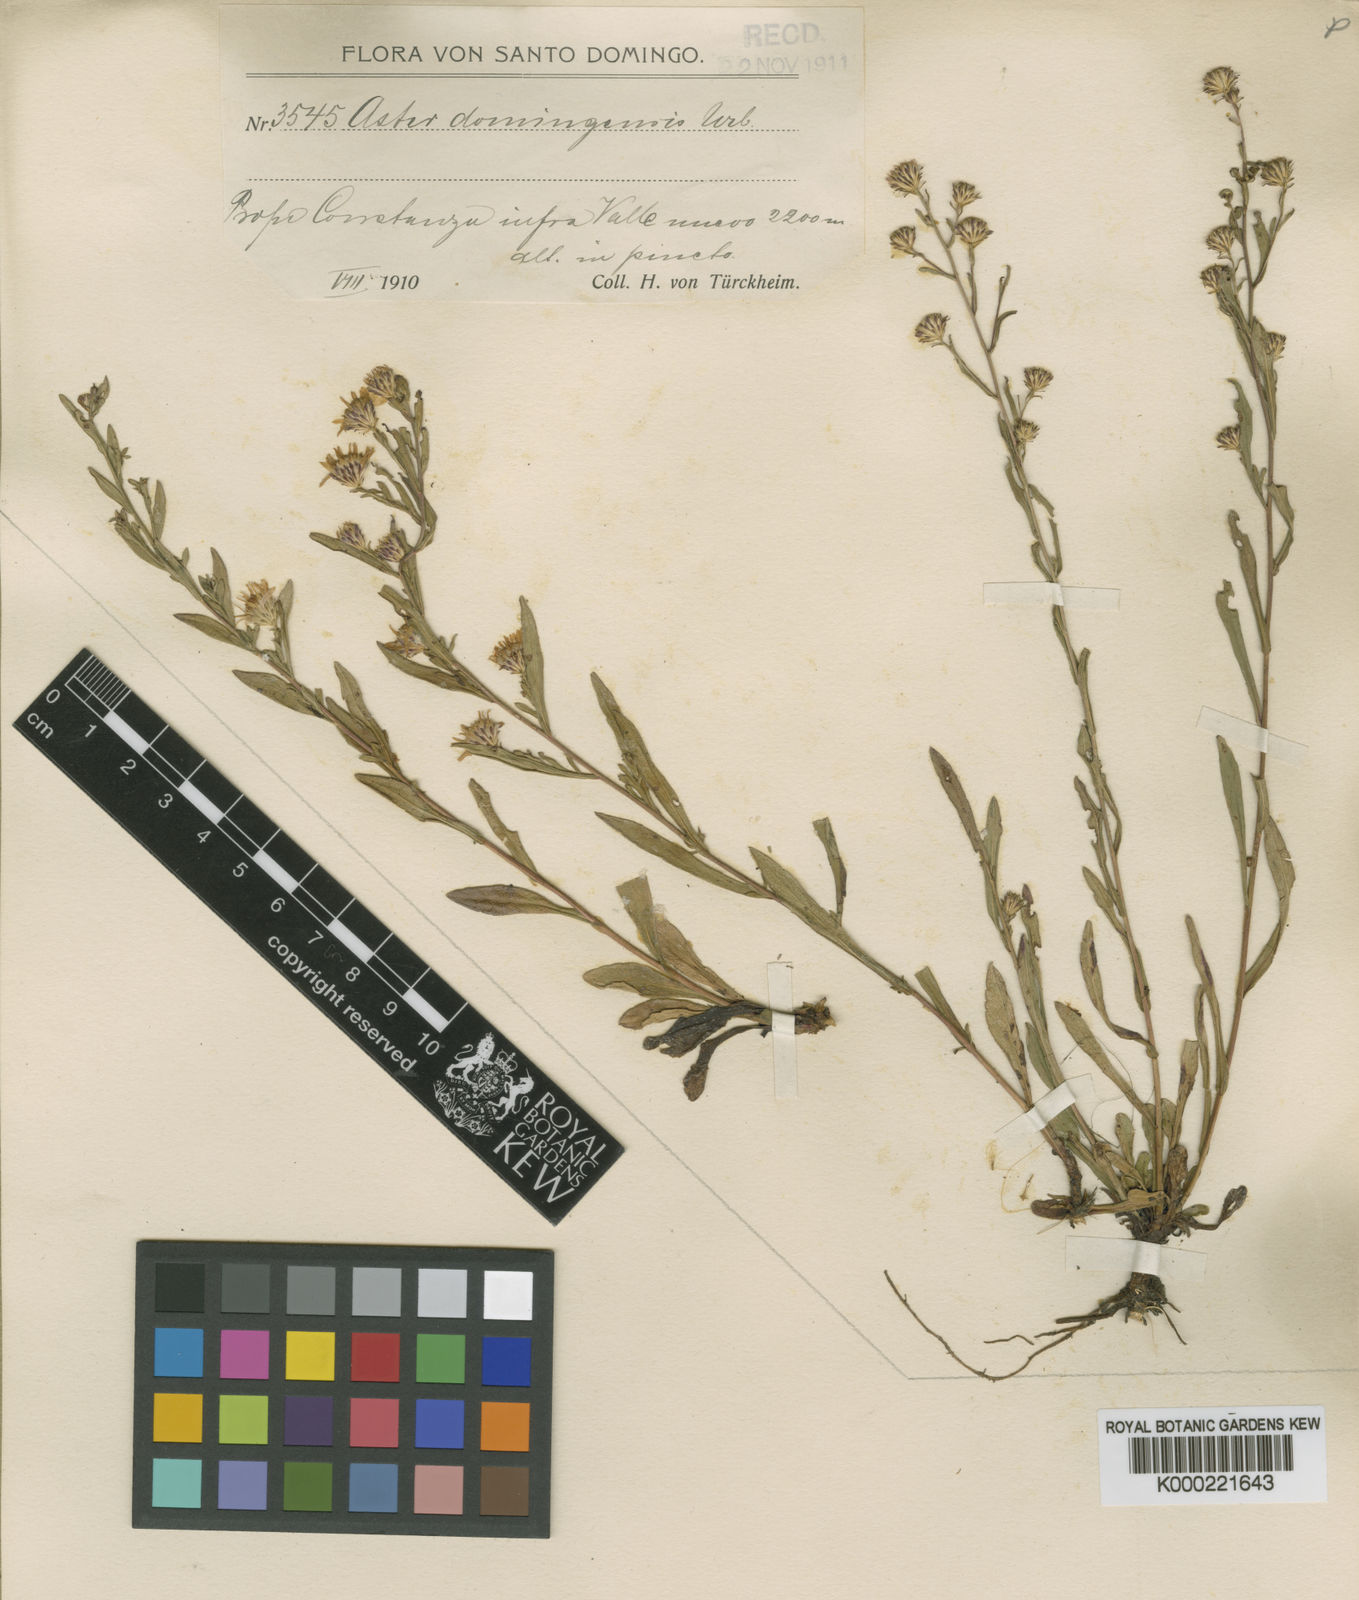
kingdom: Plantae
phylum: Tracheophyta
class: Magnoliopsida
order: Asterales
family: Asteraceae
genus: Symphyotrichum
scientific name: Symphyotrichum dumosum
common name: Bushy aster
